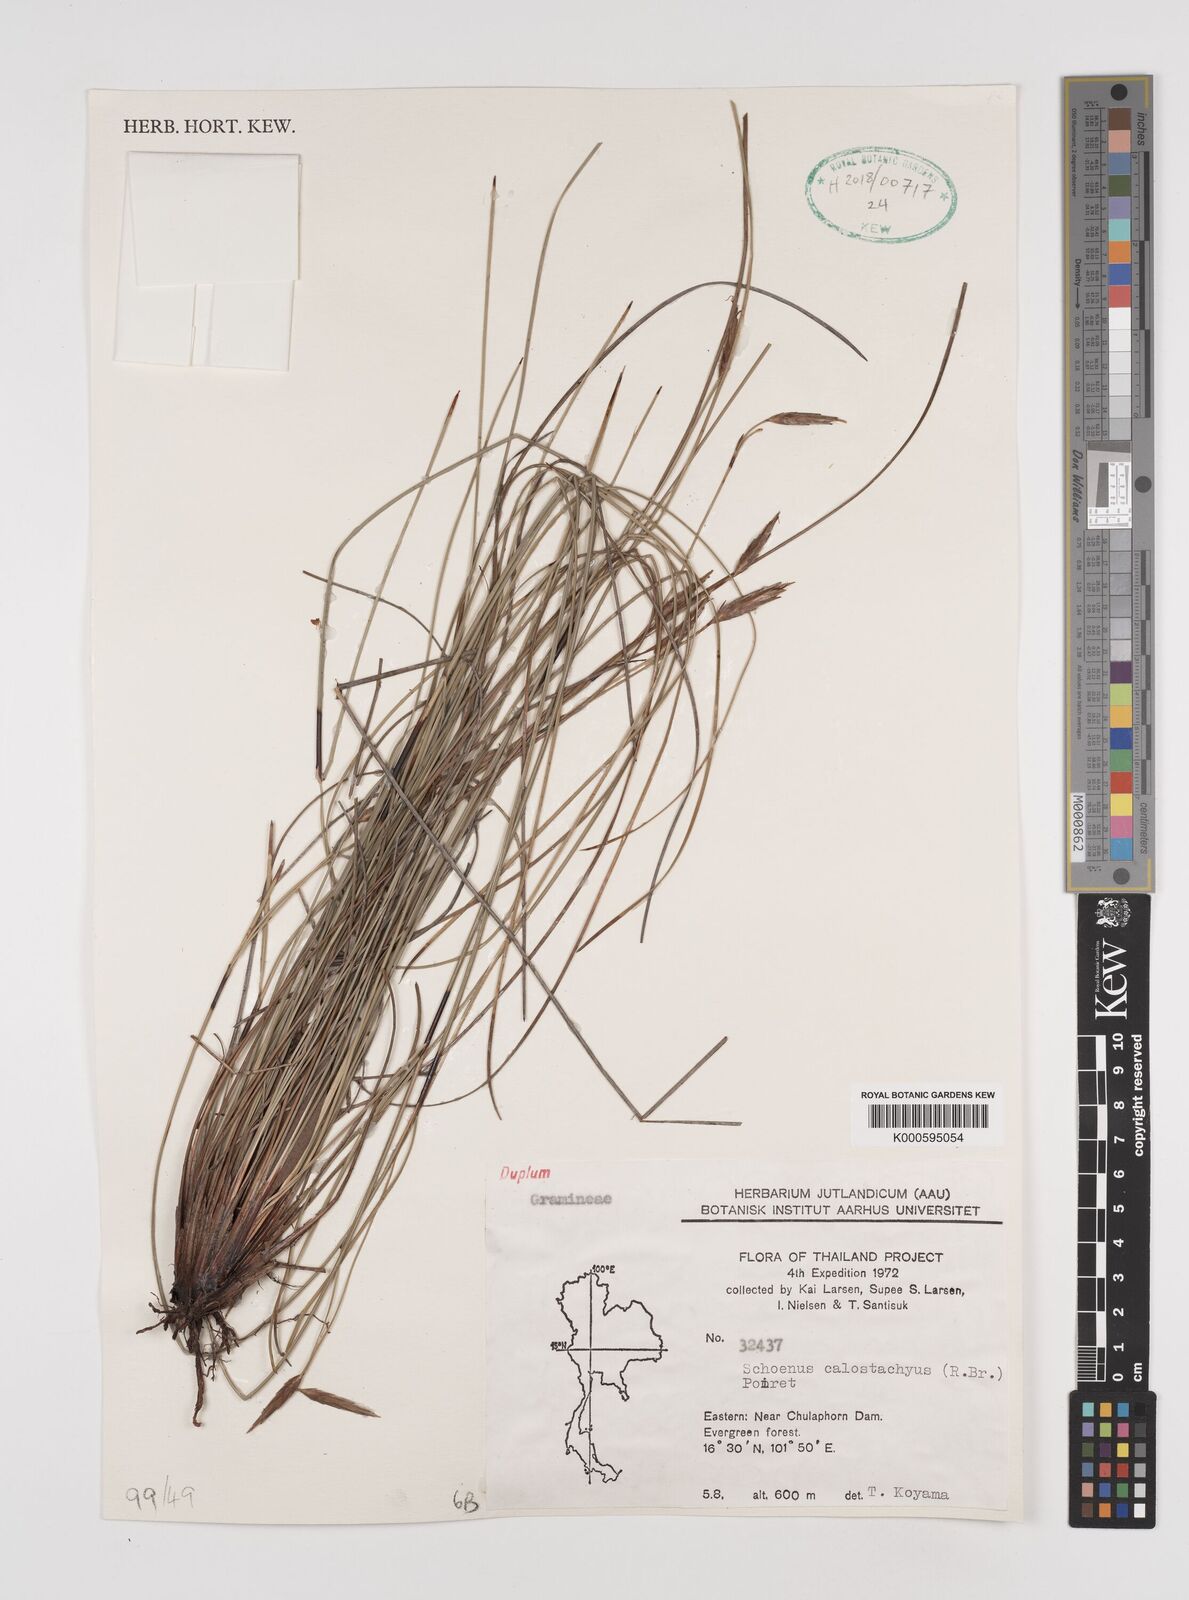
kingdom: Plantae
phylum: Tracheophyta
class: Liliopsida
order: Poales
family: Cyperaceae
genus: Schoenus
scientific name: Schoenus
